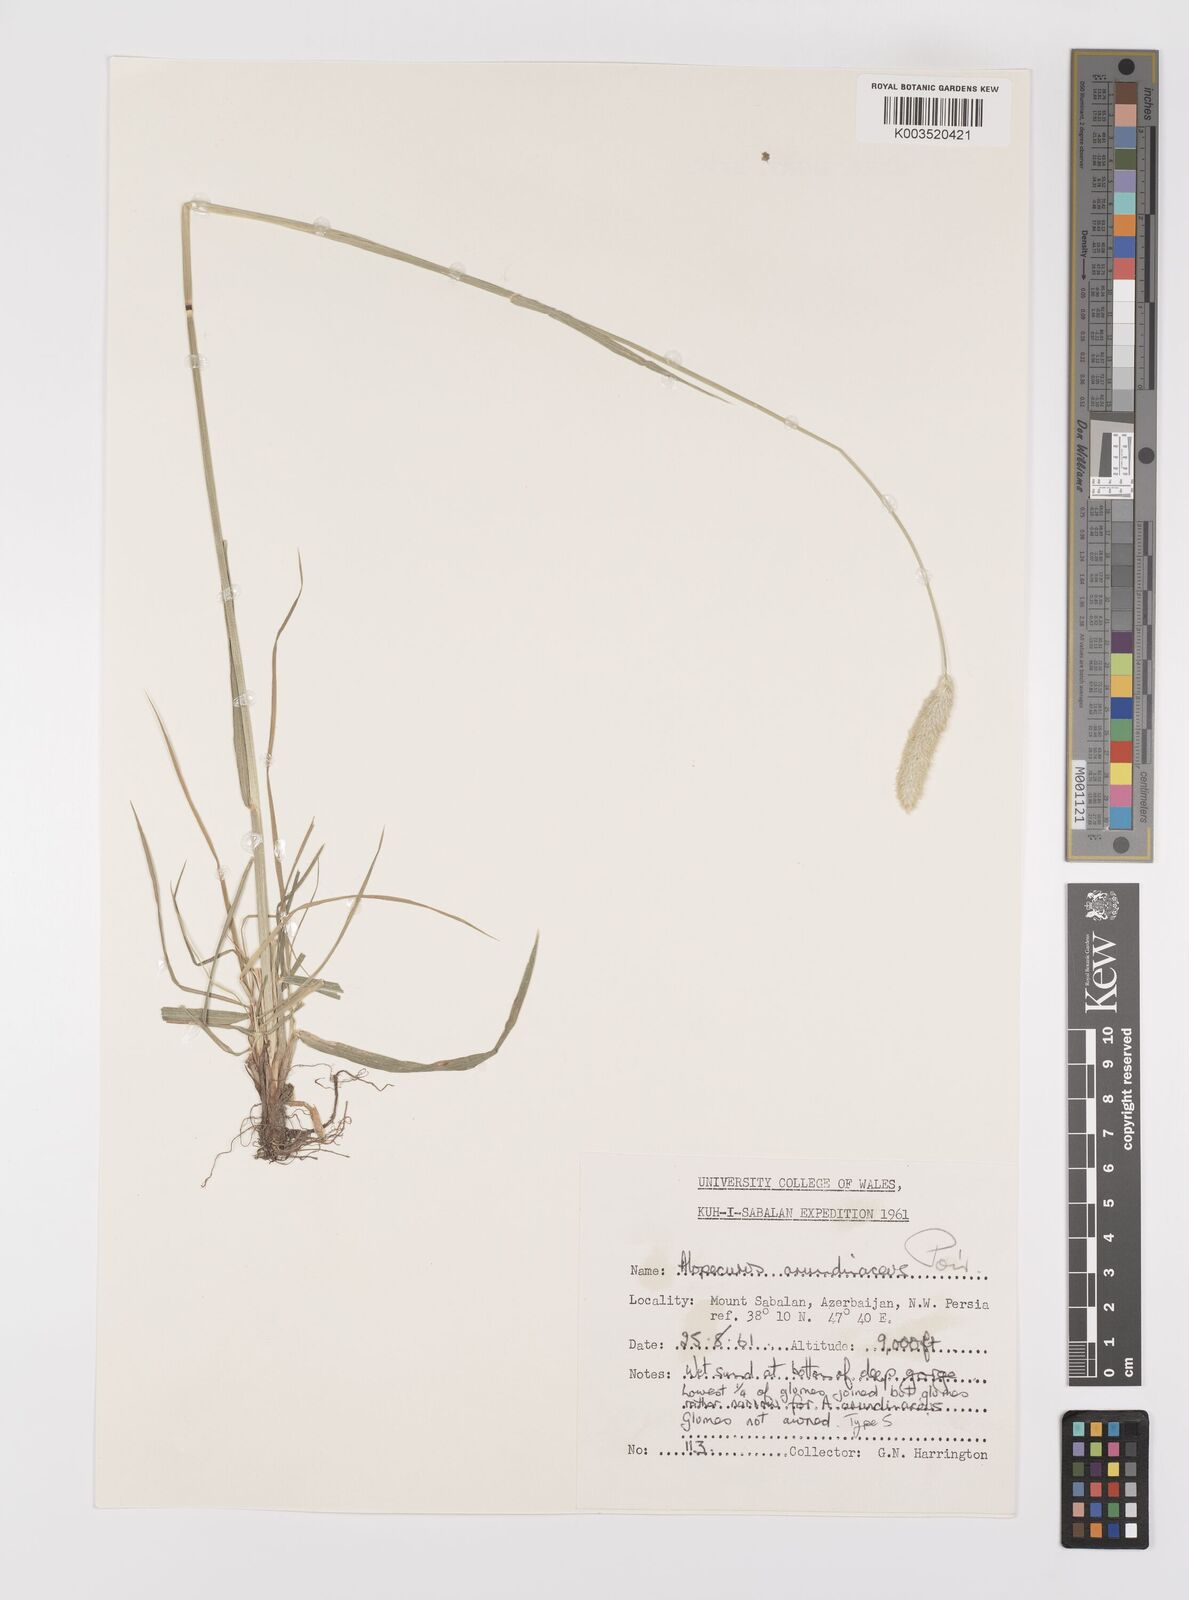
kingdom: Plantae
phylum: Tracheophyta
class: Liliopsida
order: Poales
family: Poaceae
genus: Alopecurus
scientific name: Alopecurus arundinaceus
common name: Creeping meadow foxtail
